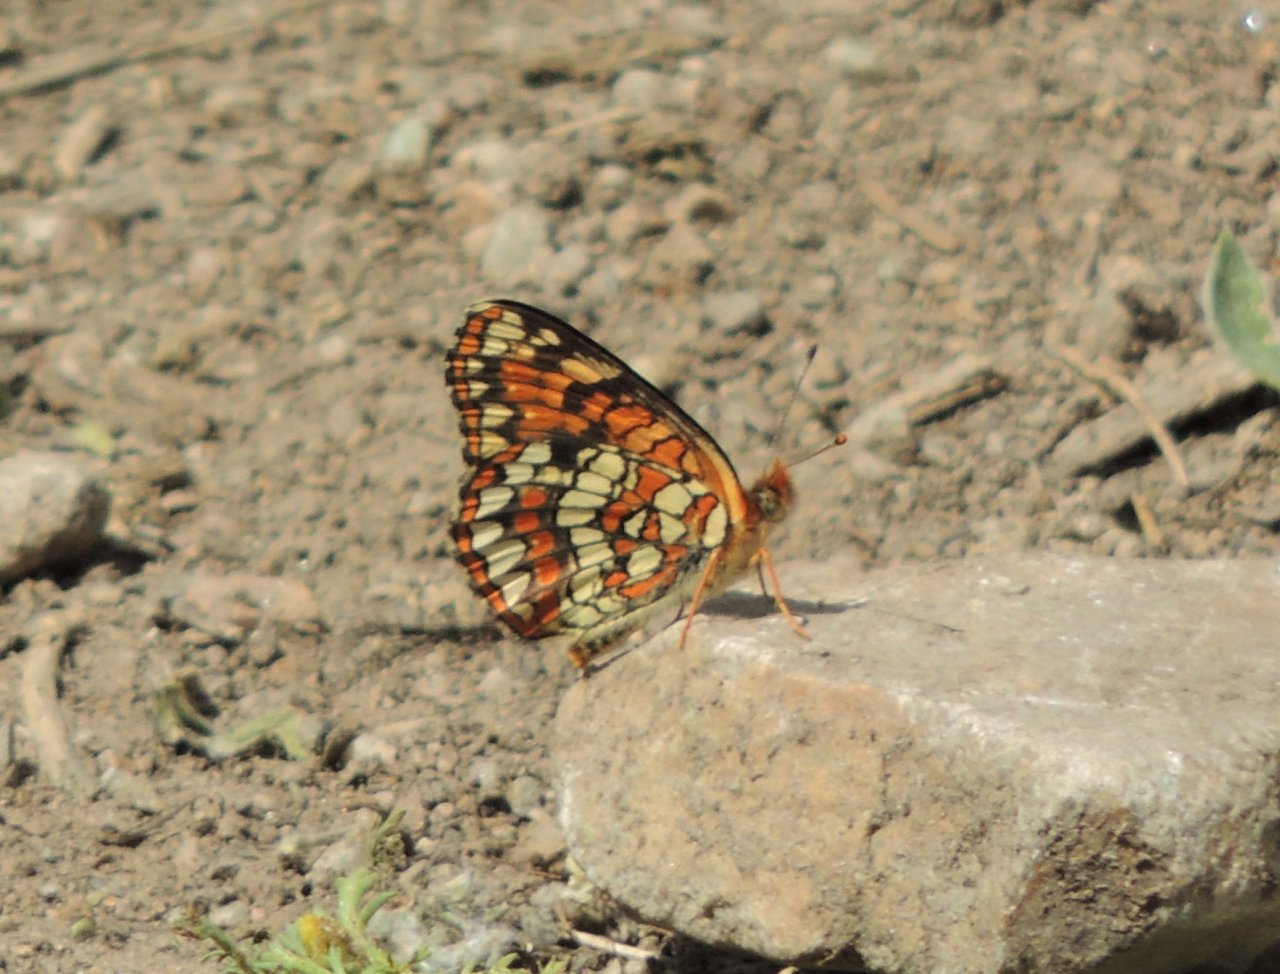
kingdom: Animalia
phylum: Arthropoda
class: Insecta
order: Lepidoptera
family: Nymphalidae
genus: Chlosyne
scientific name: Chlosyne palla
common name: Northern Checkerspot
